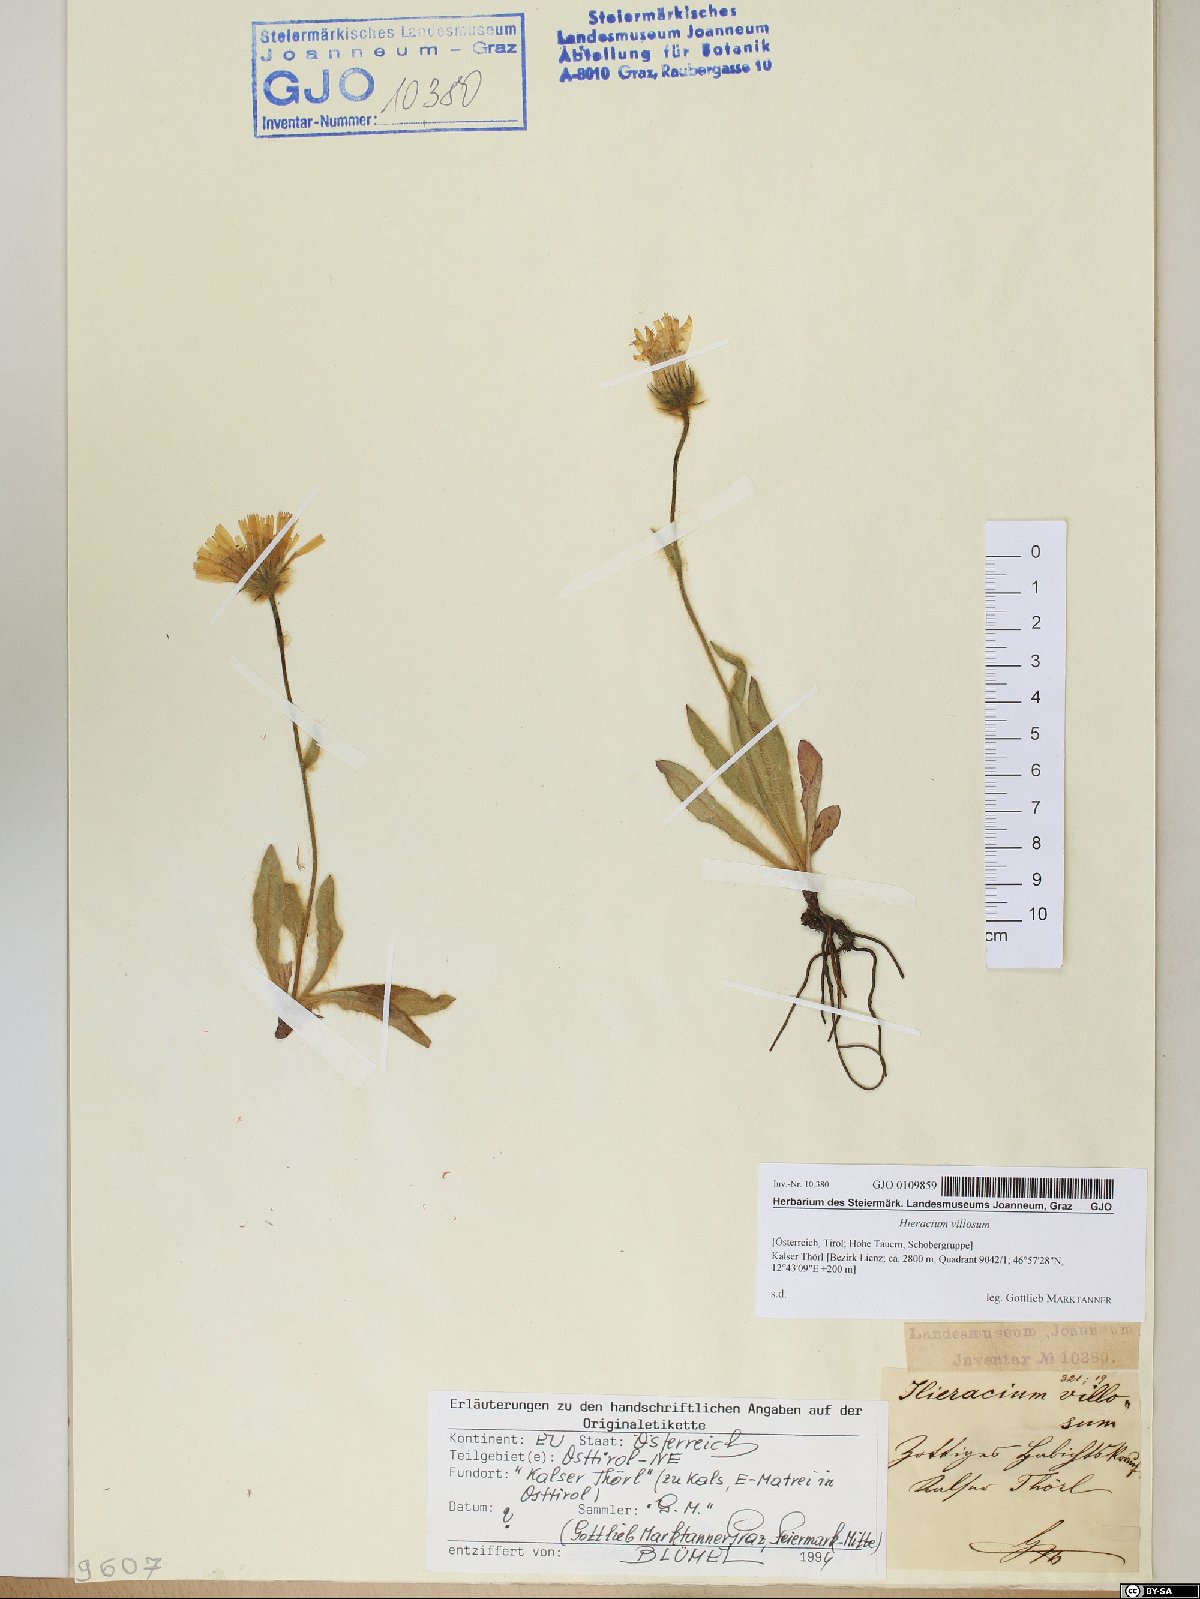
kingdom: Plantae
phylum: Tracheophyta
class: Magnoliopsida
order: Asterales
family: Asteraceae
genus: Hieracium
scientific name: Hieracium villosum
